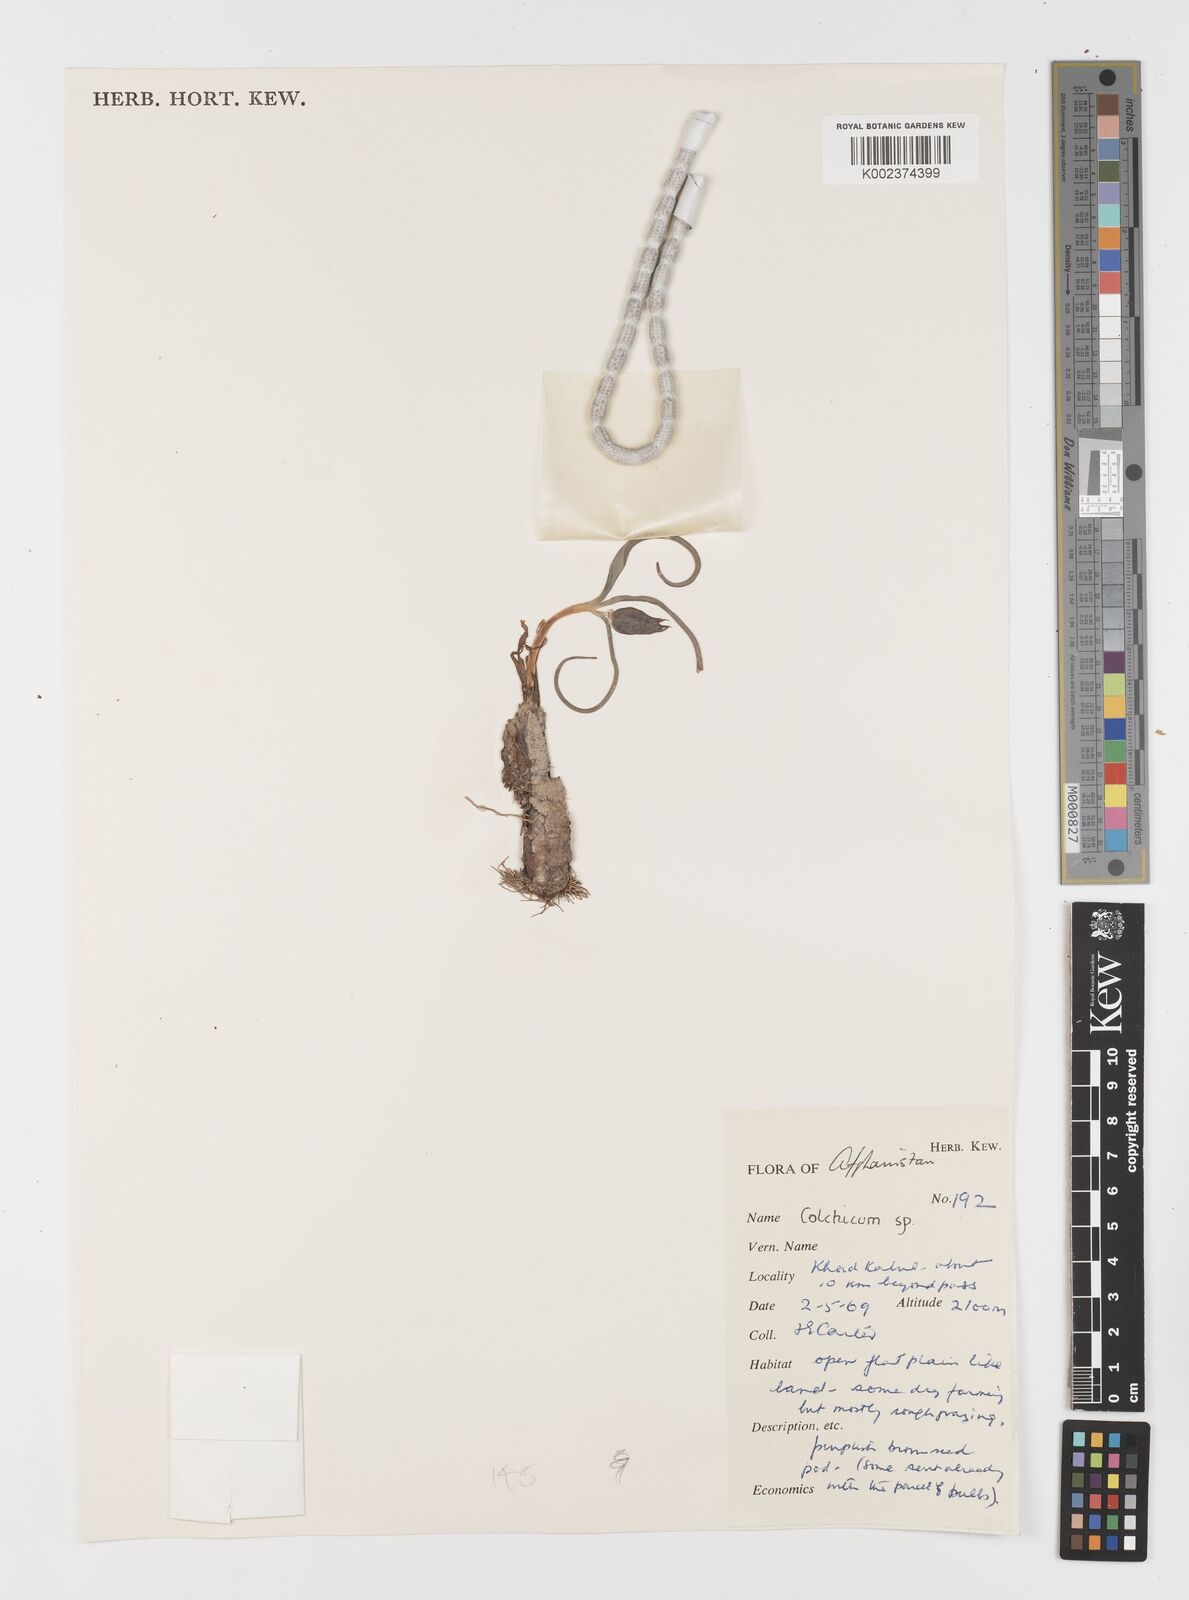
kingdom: Plantae
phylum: Tracheophyta
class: Liliopsida
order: Liliales
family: Colchicaceae
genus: Colchicum
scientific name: Colchicum
